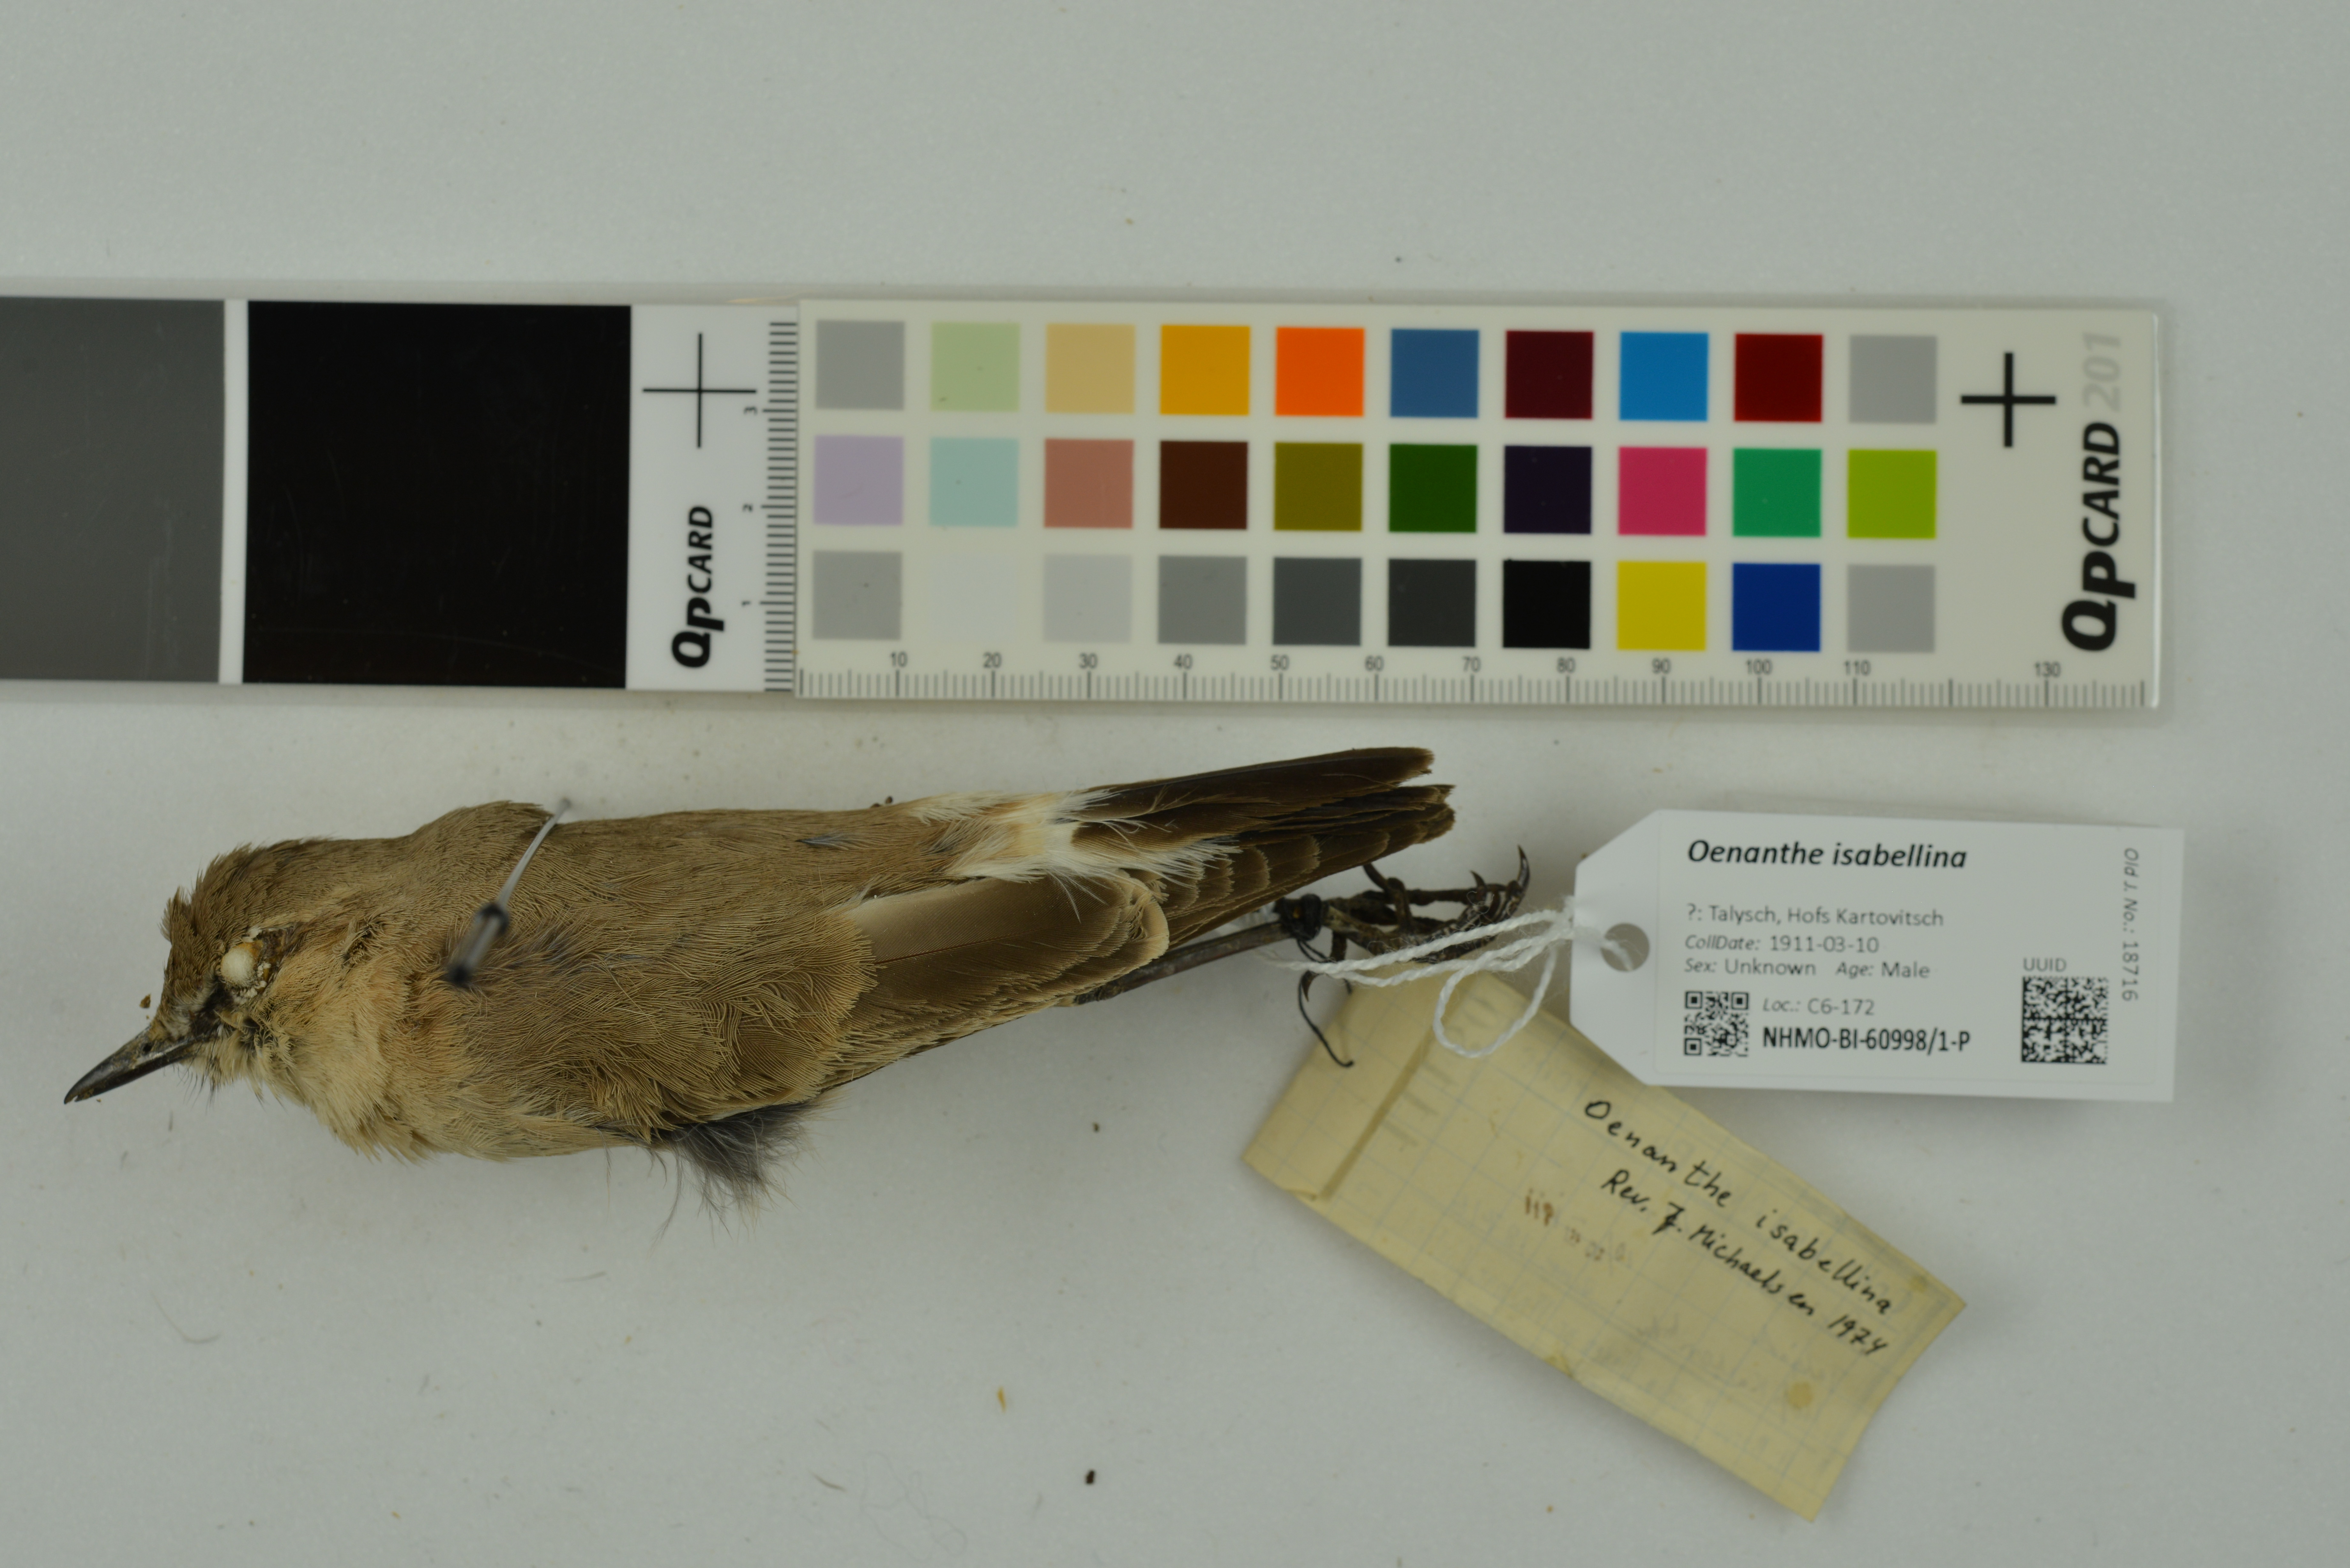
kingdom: Animalia
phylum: Chordata
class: Aves
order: Passeriformes
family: Muscicapidae
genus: Oenanthe
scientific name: Oenanthe isabellina
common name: Isabelline wheatear
